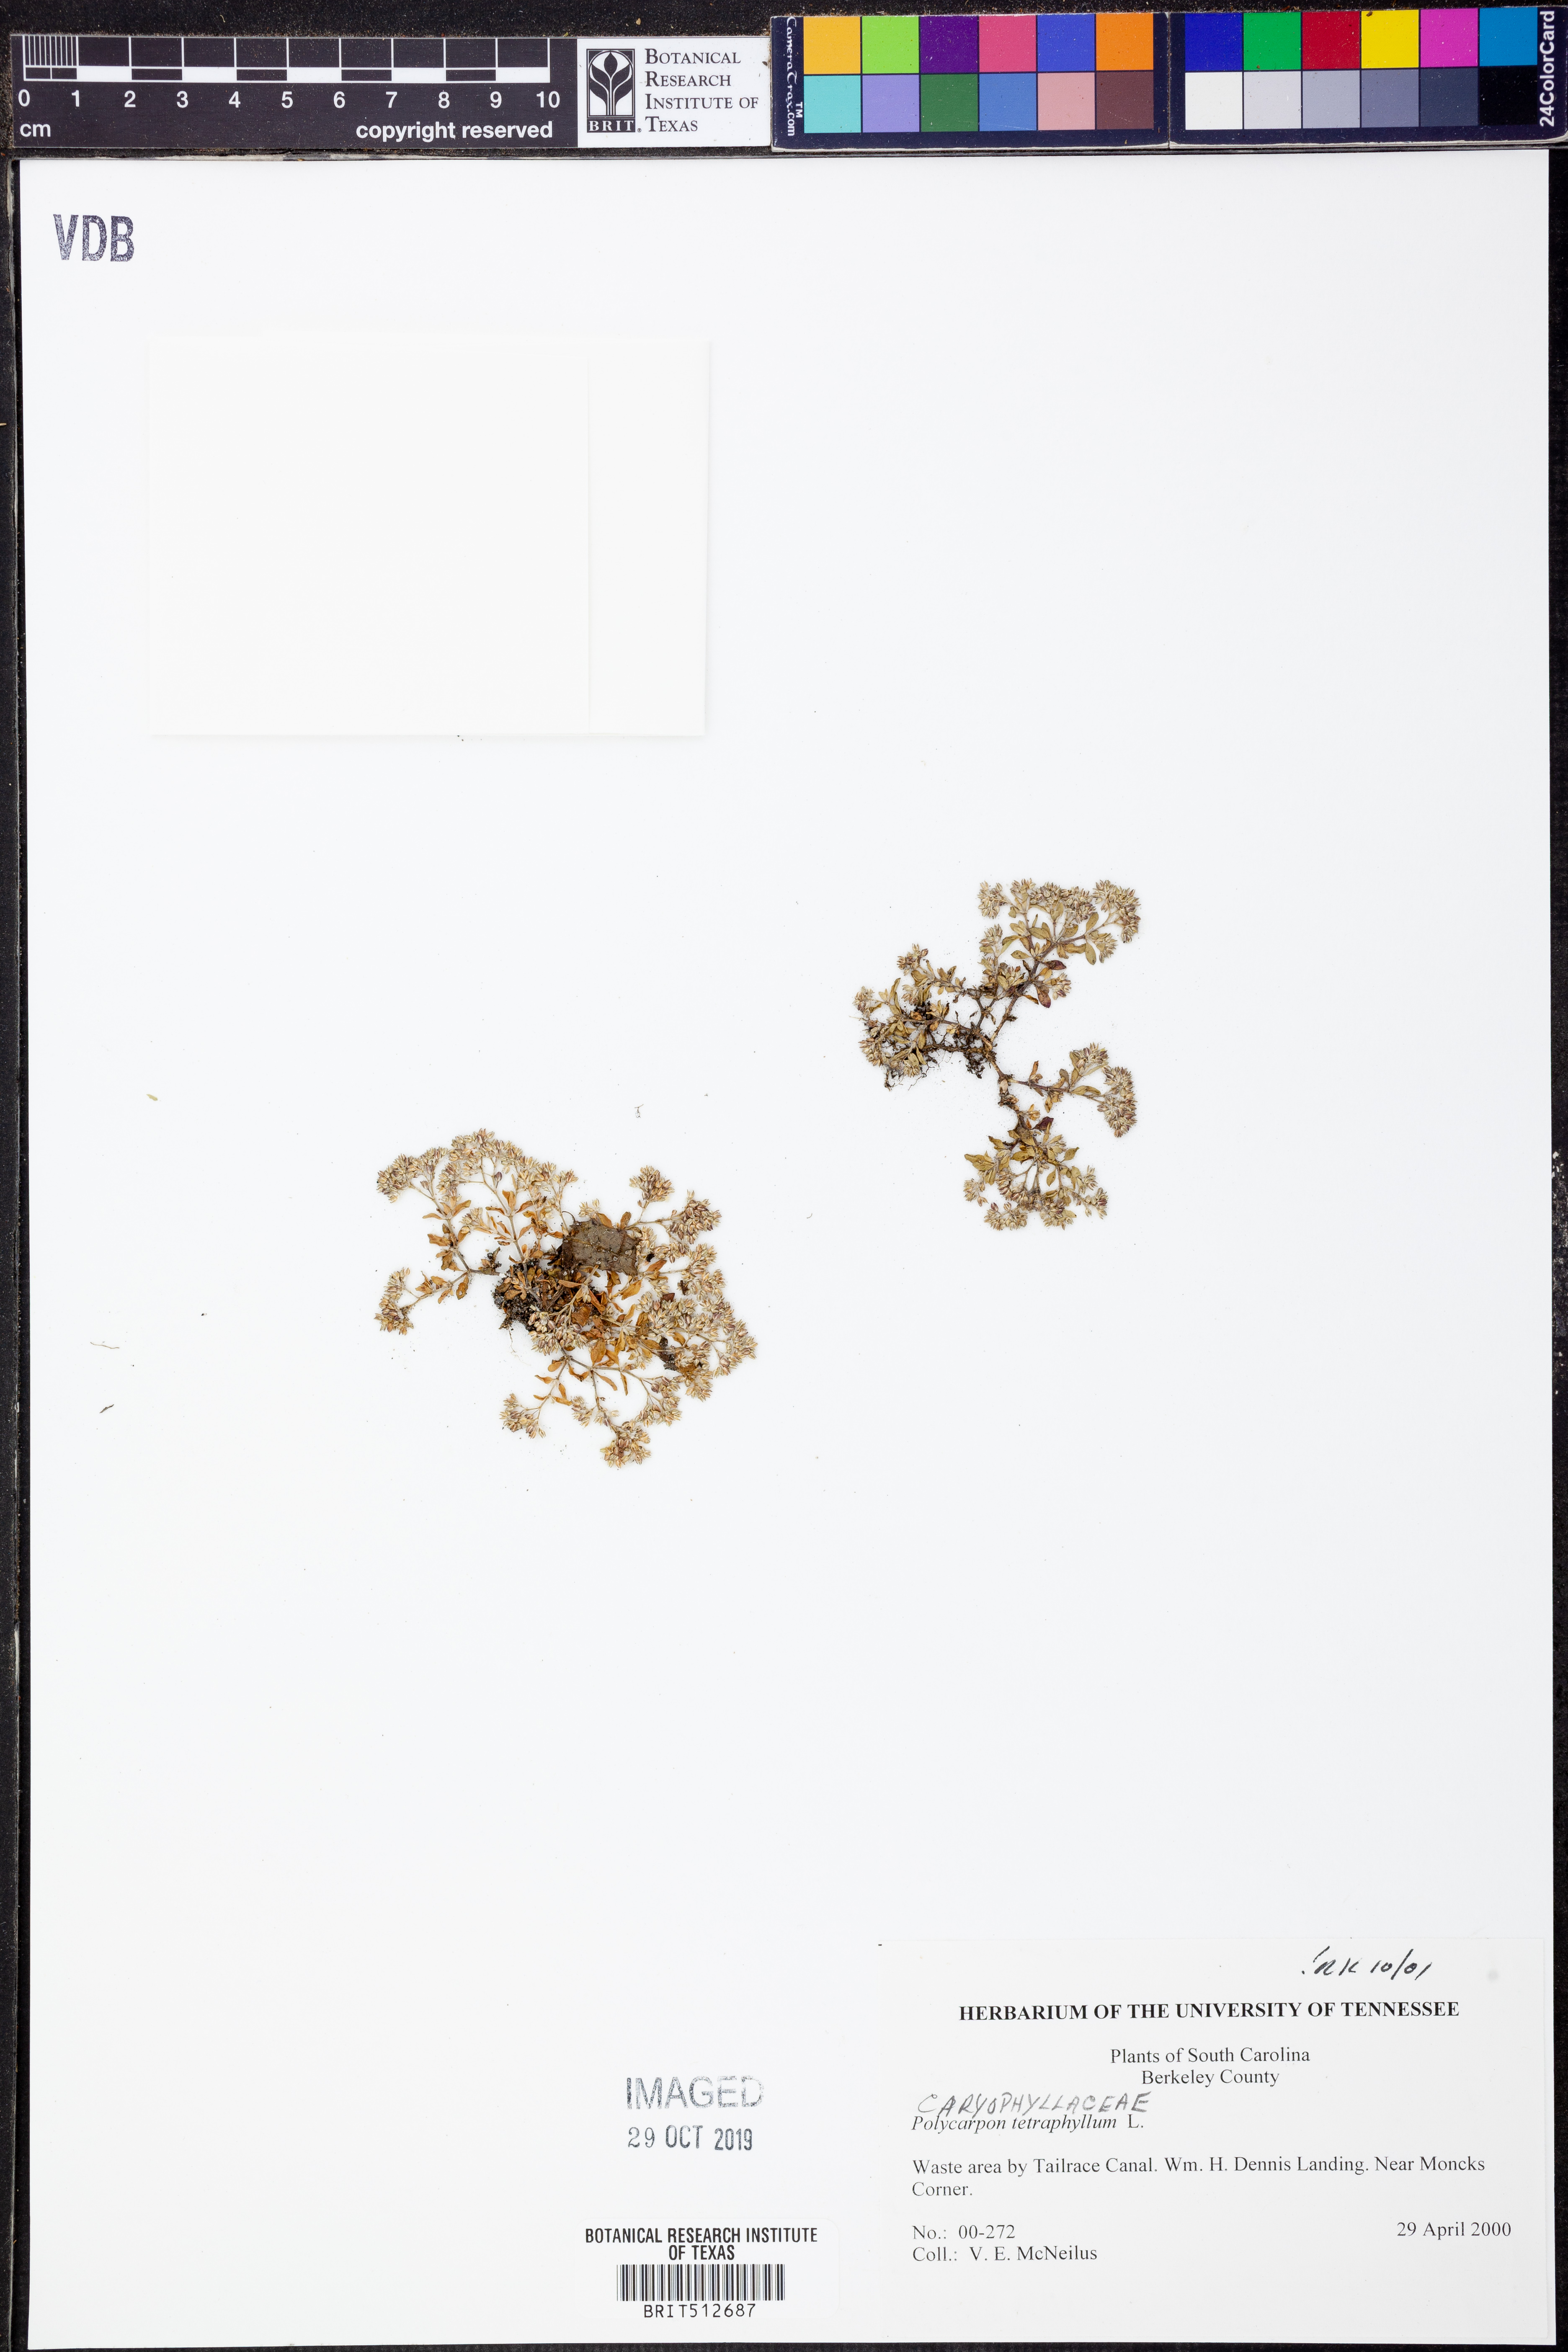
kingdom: Plantae
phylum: Tracheophyta
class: Magnoliopsida
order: Caryophyllales
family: Caryophyllaceae
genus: Polycarpon
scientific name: Polycarpon tetraphyllum
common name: Four-leaved all-seed
